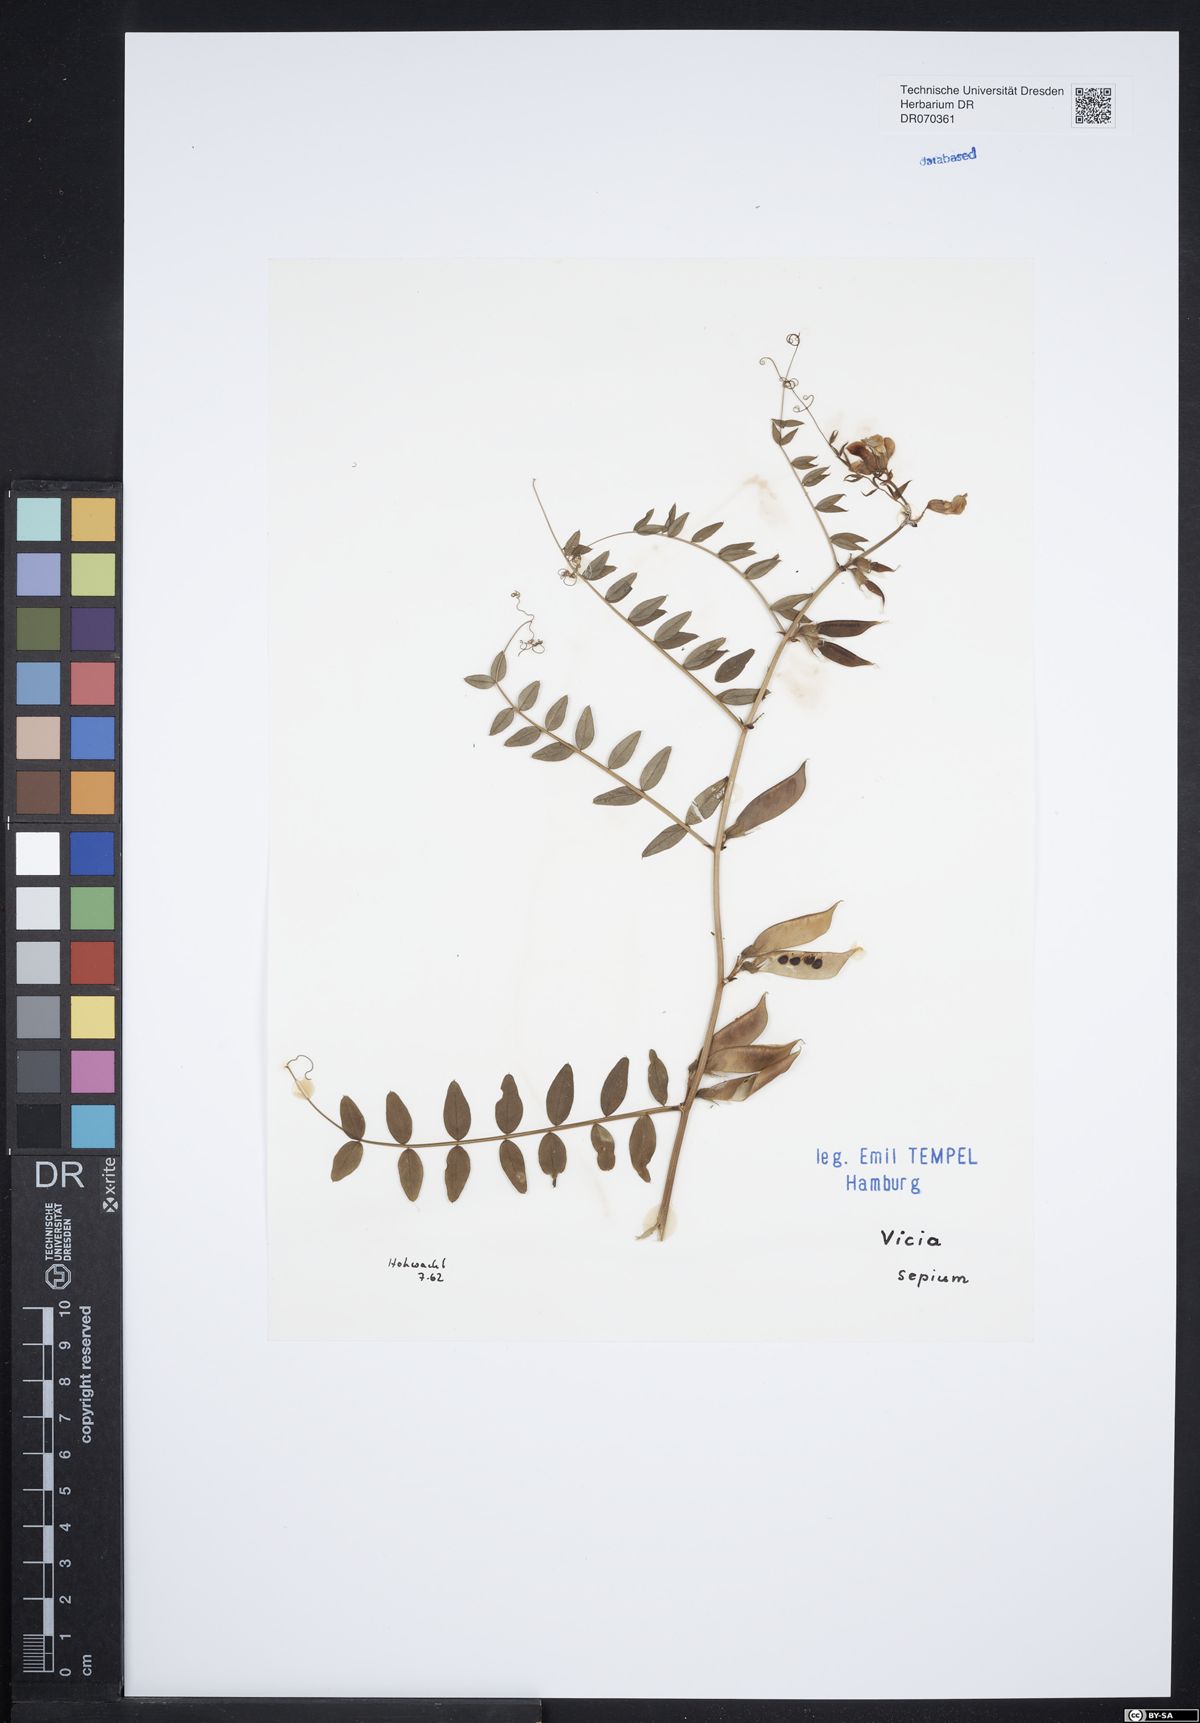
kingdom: Plantae
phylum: Tracheophyta
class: Magnoliopsida
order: Fabales
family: Fabaceae
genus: Vicia
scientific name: Vicia sepium
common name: Bush vetch
